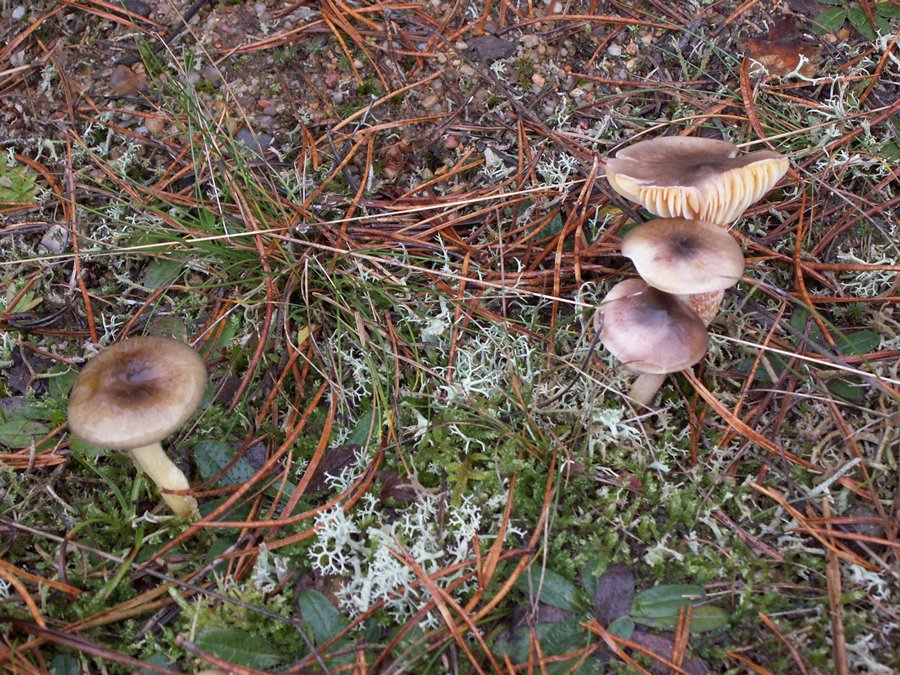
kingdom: Fungi
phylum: Basidiomycota
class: Agaricomycetes
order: Agaricales
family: Hygrophoraceae
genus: Hygrophorus
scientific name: Hygrophorus hypothejus
